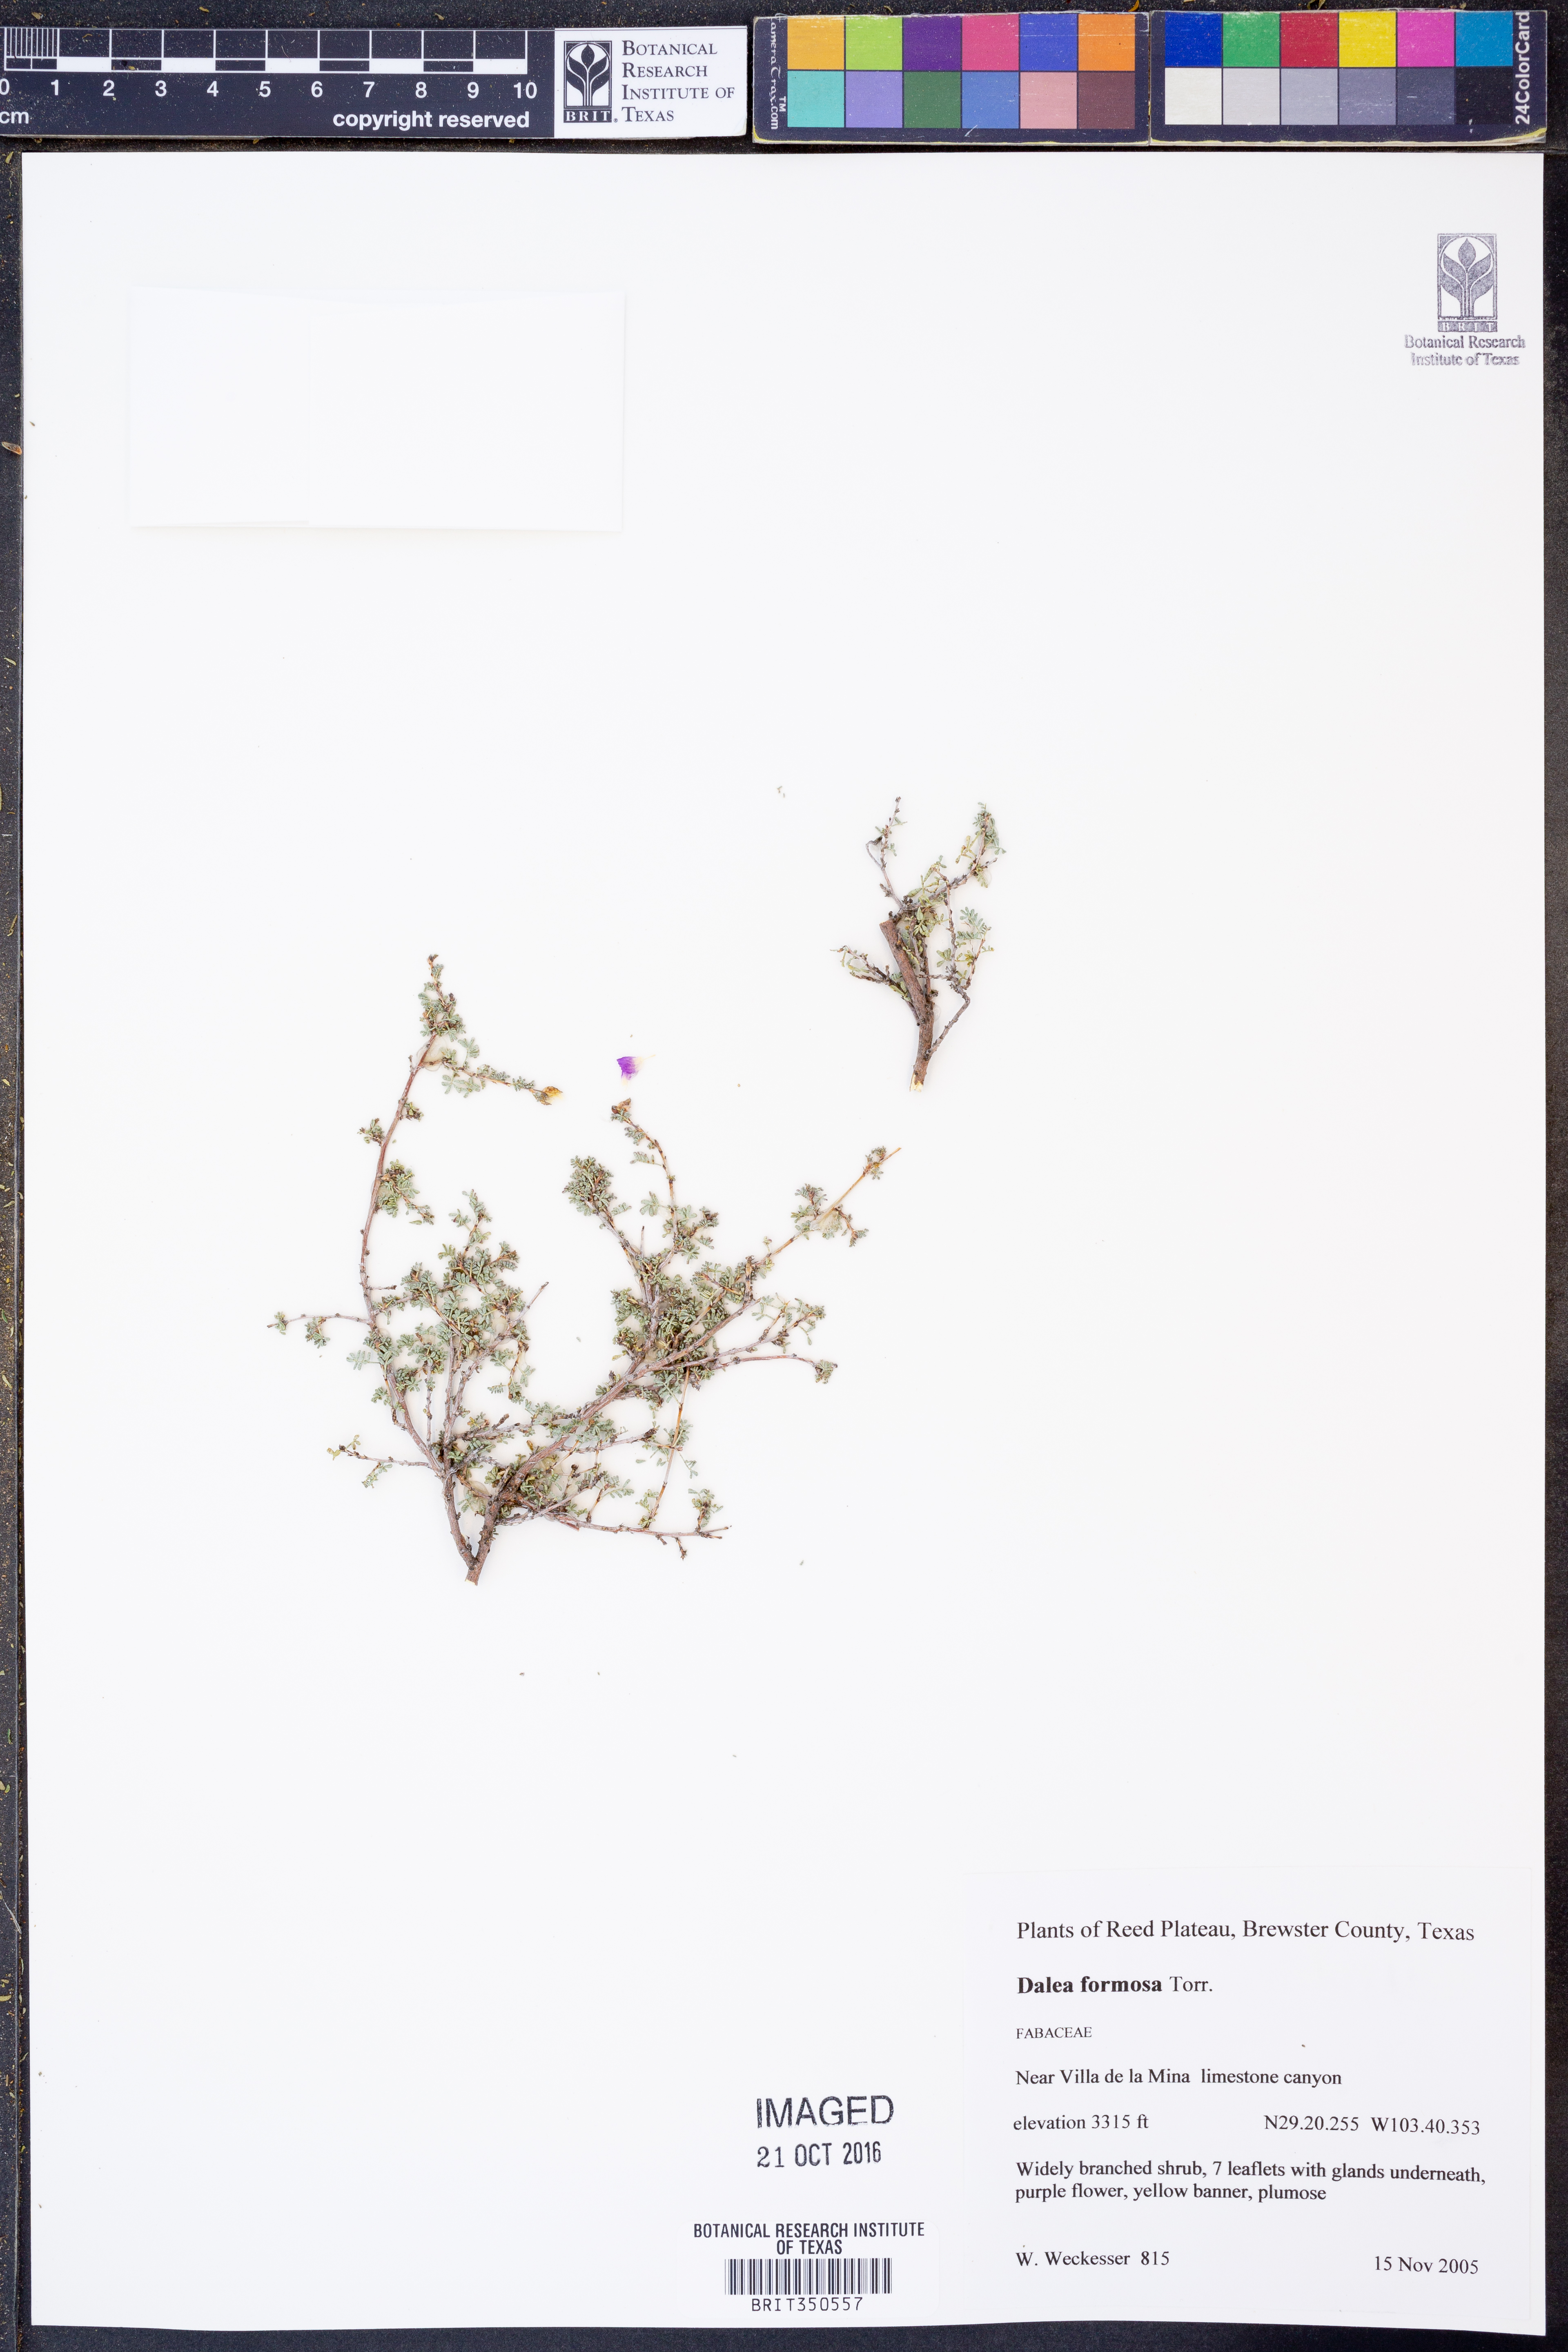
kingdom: Plantae
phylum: Tracheophyta
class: Magnoliopsida
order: Fabales
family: Fabaceae
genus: Dalea
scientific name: Dalea formosa
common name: Feather-plume dalea
